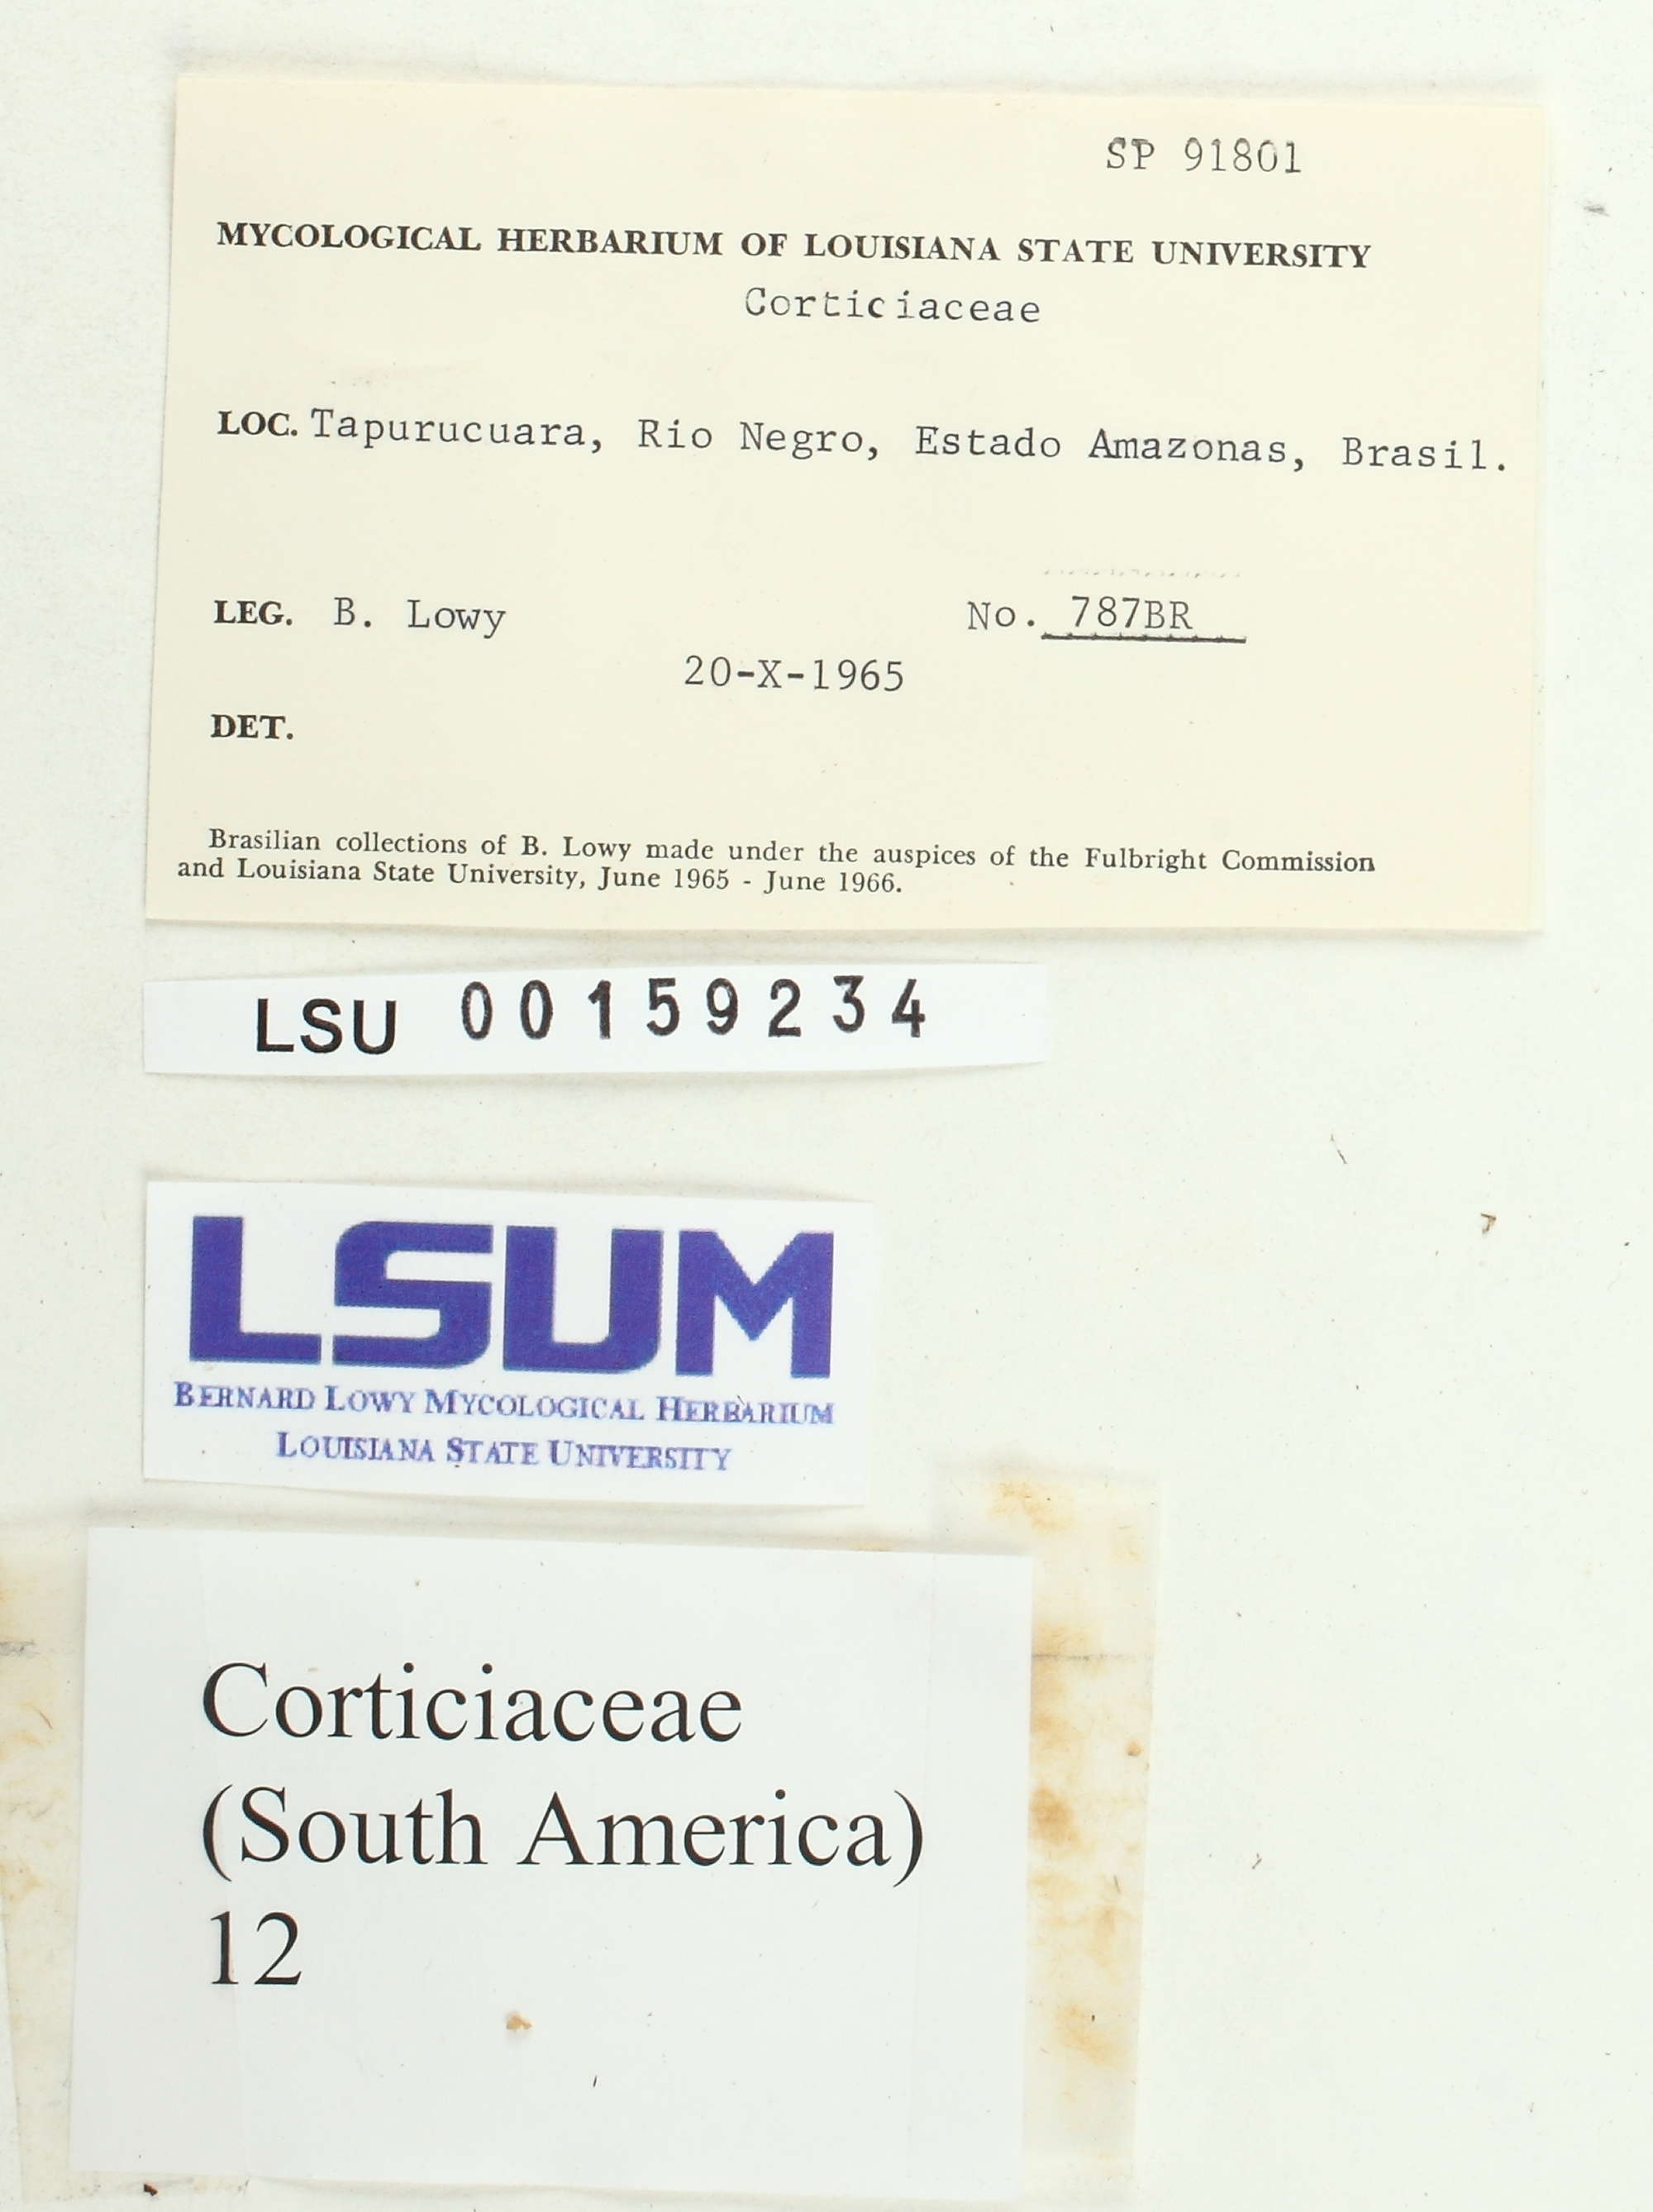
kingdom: Fungi
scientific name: Fungi
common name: Fungi
